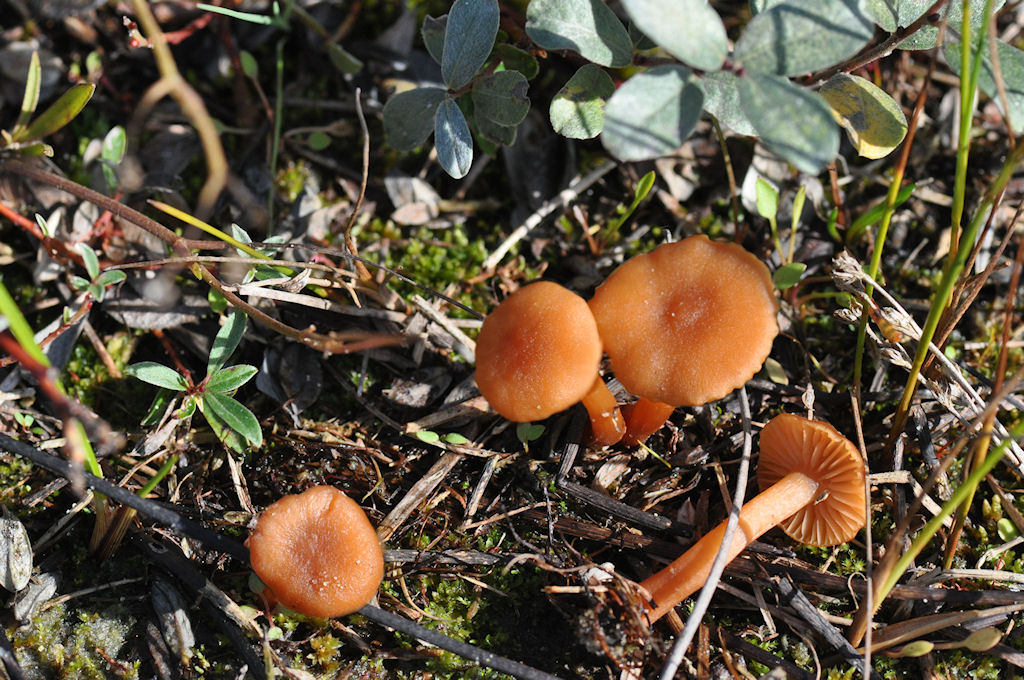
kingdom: Fungi
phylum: Basidiomycota
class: Agaricomycetes
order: Agaricales
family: Hydnangiaceae
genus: Laccaria
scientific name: Laccaria laccata
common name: rød ametysthat
